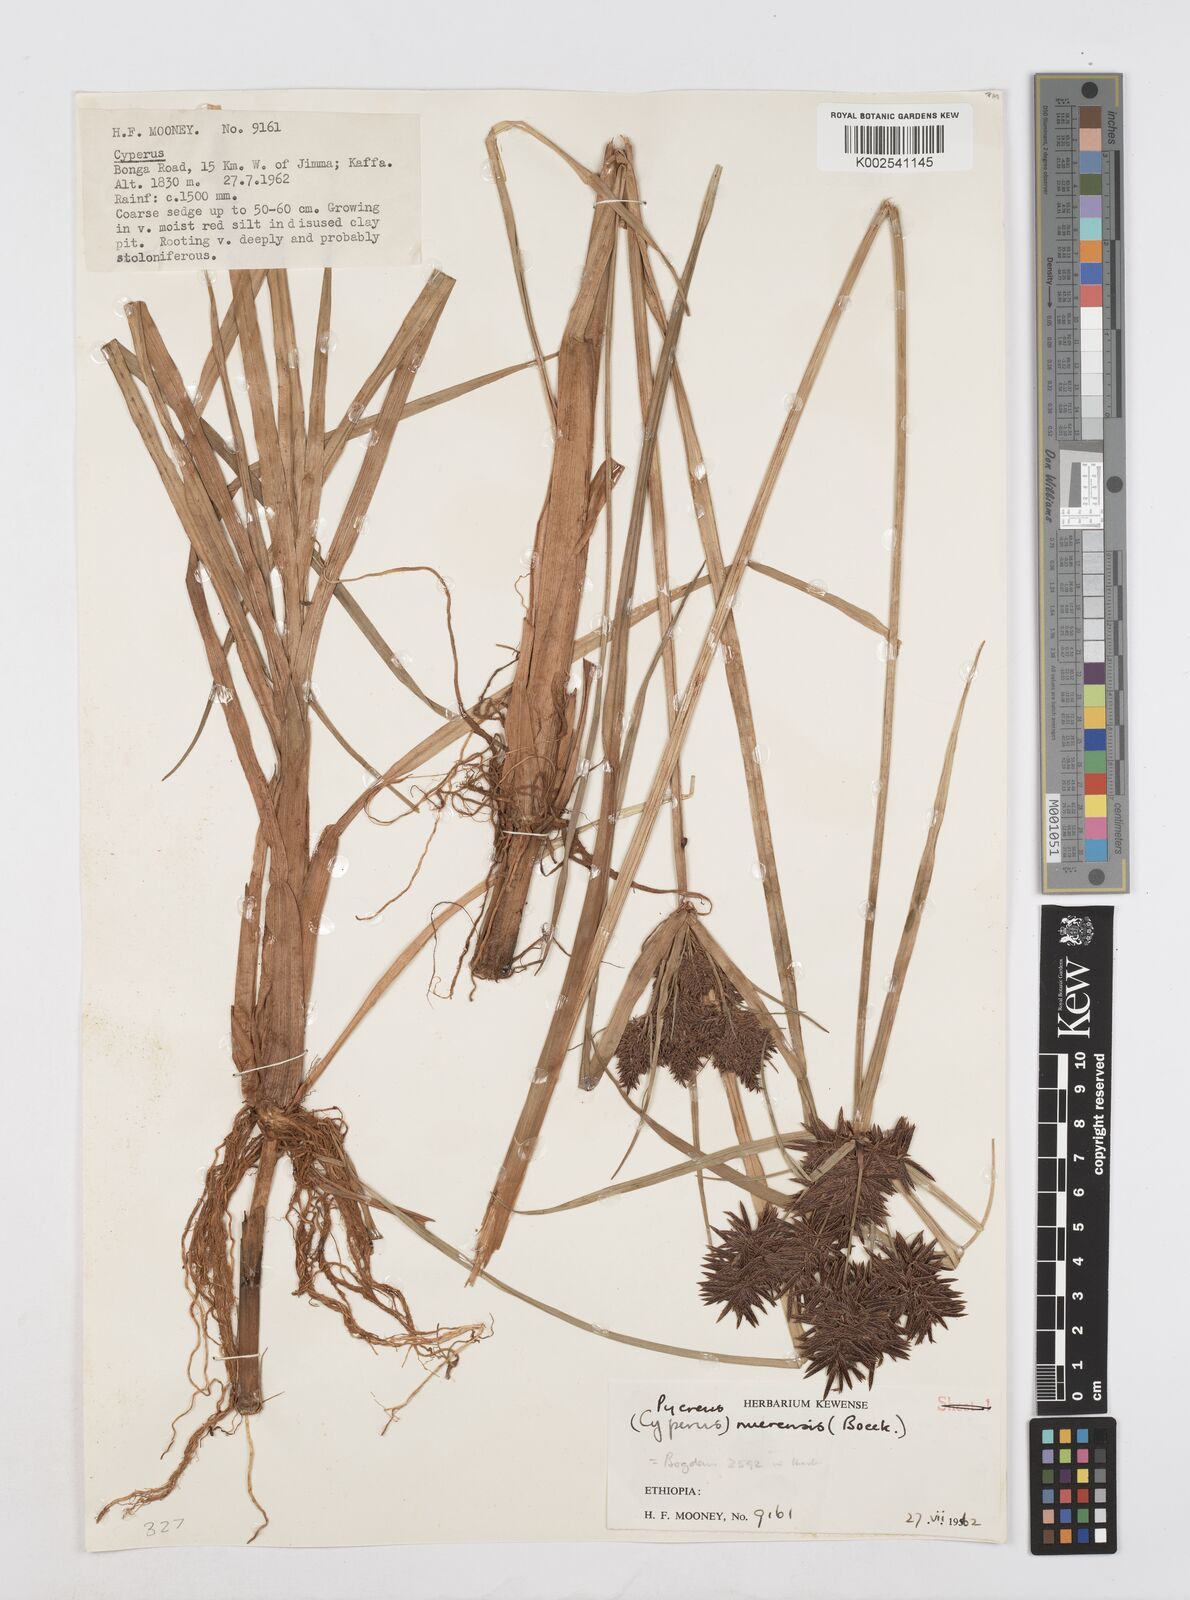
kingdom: Plantae
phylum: Tracheophyta
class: Liliopsida
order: Poales
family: Cyperaceae
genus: Cyperus
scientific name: Cyperus aethiops
